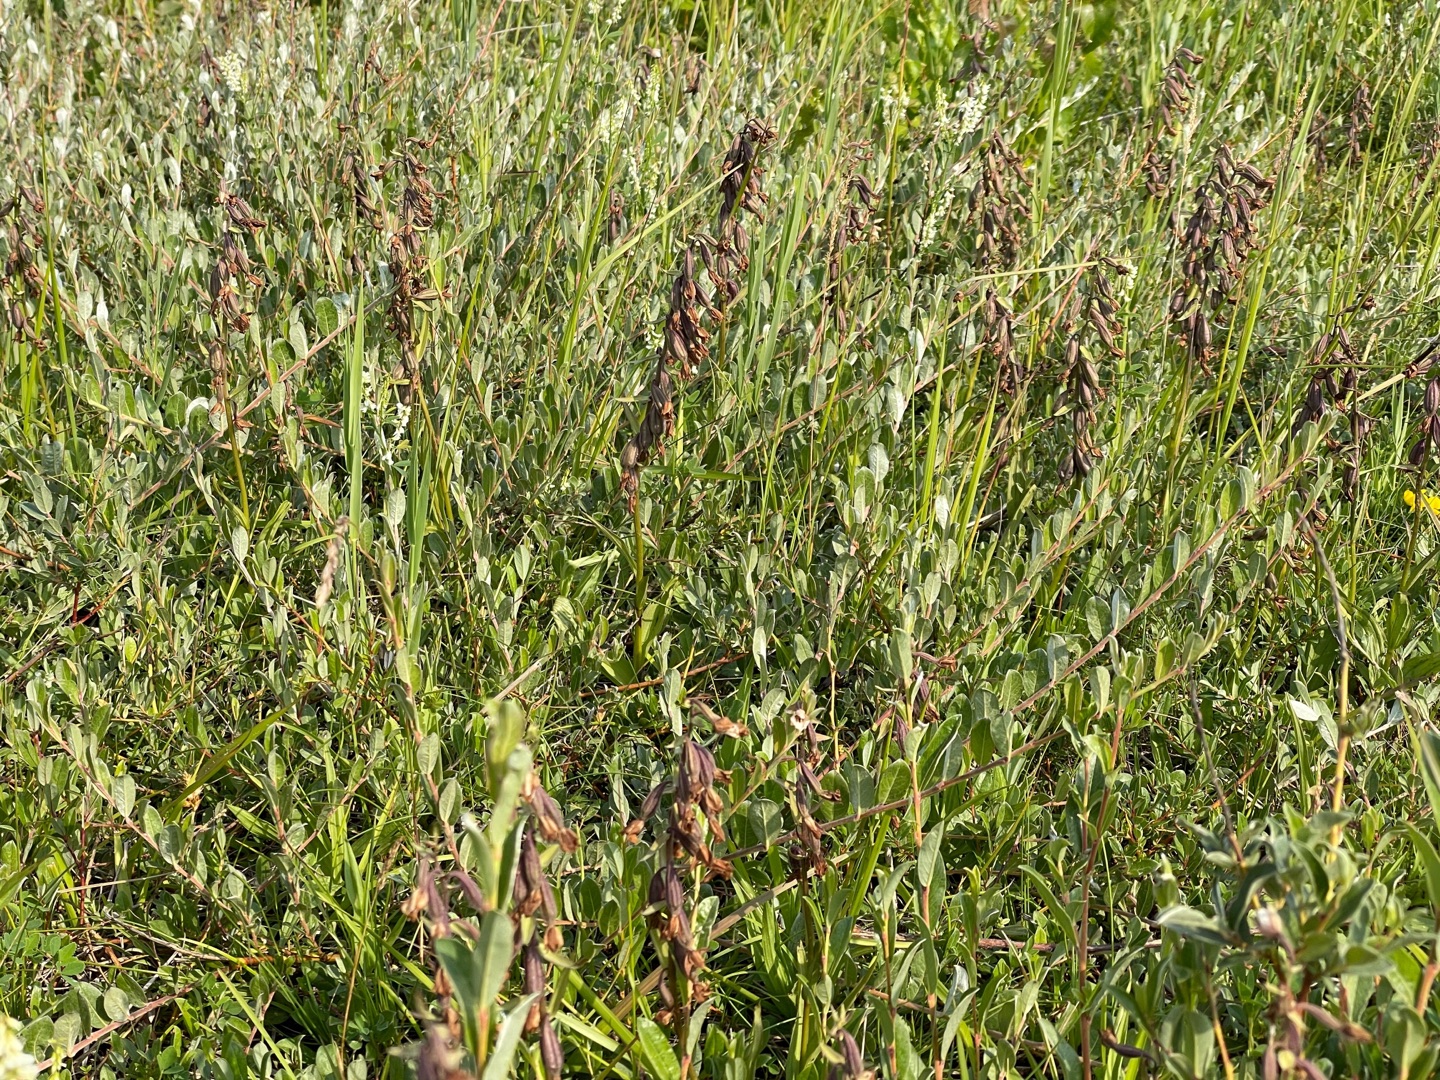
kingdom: Plantae
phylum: Tracheophyta
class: Liliopsida
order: Asparagales
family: Orchidaceae
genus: Epipactis
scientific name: Epipactis palustris
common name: Sump-hullæbe
